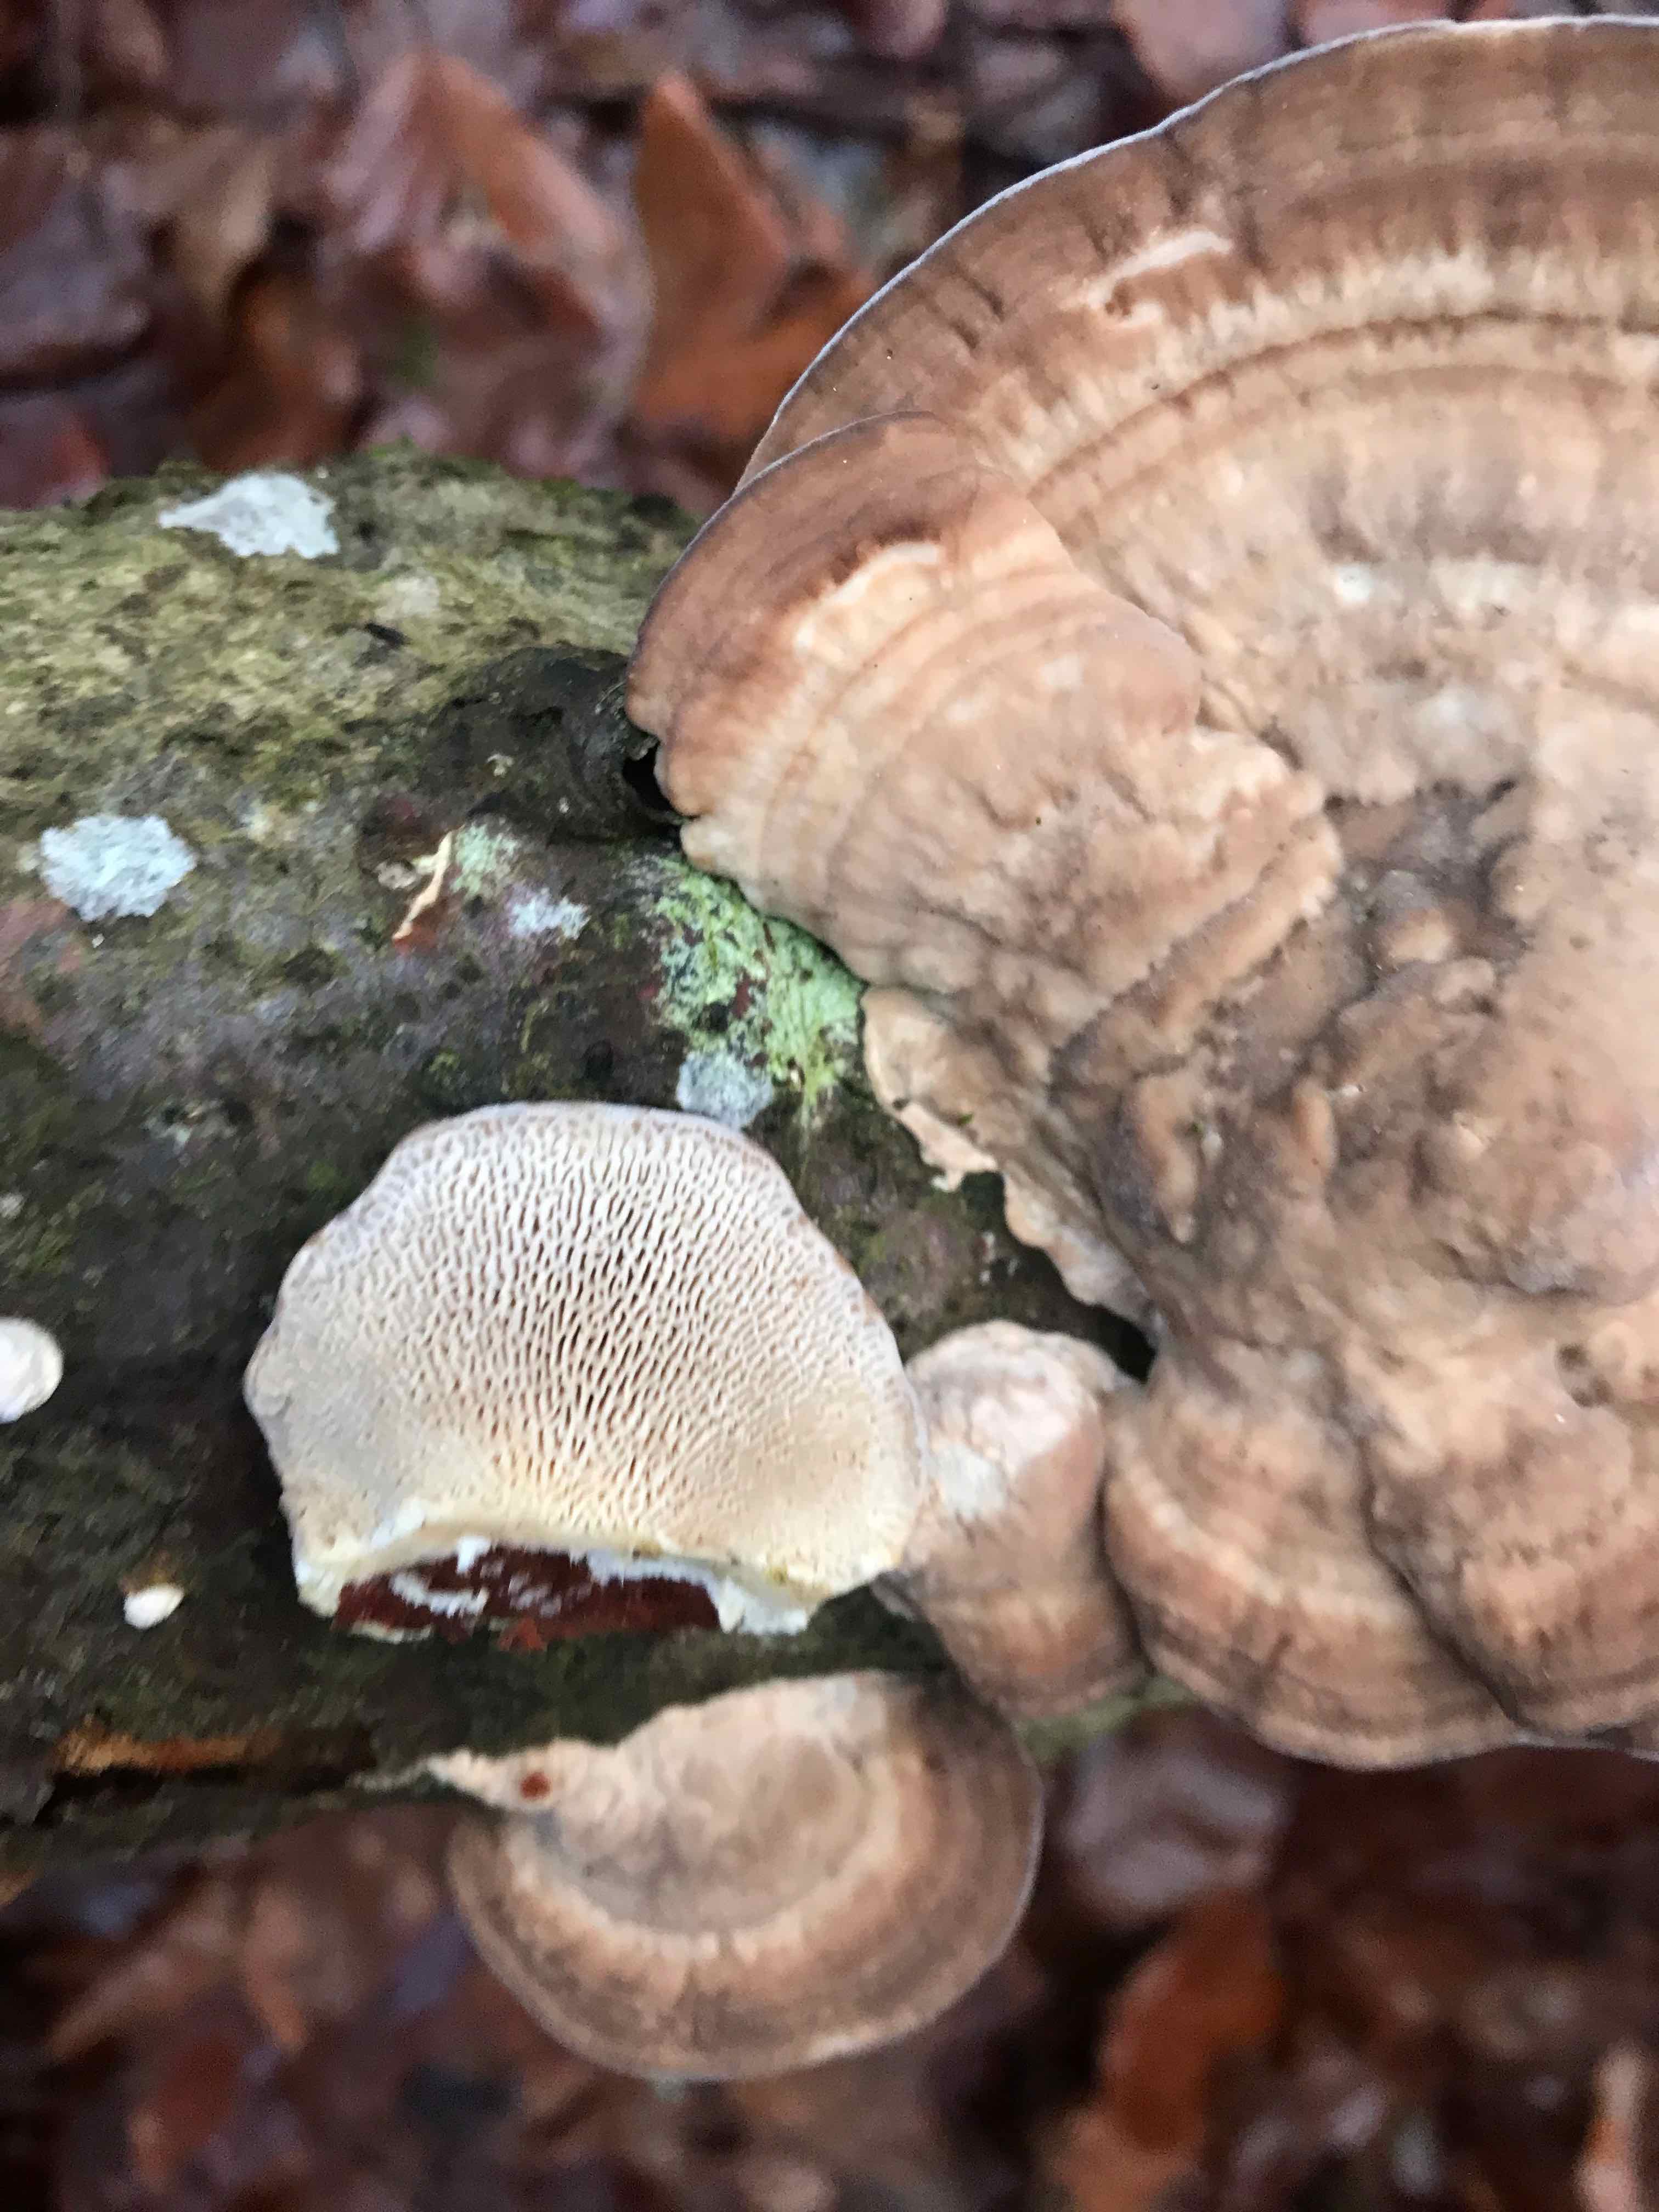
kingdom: Fungi
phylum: Basidiomycota
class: Agaricomycetes
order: Polyporales
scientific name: Polyporales
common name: poresvampordenen
